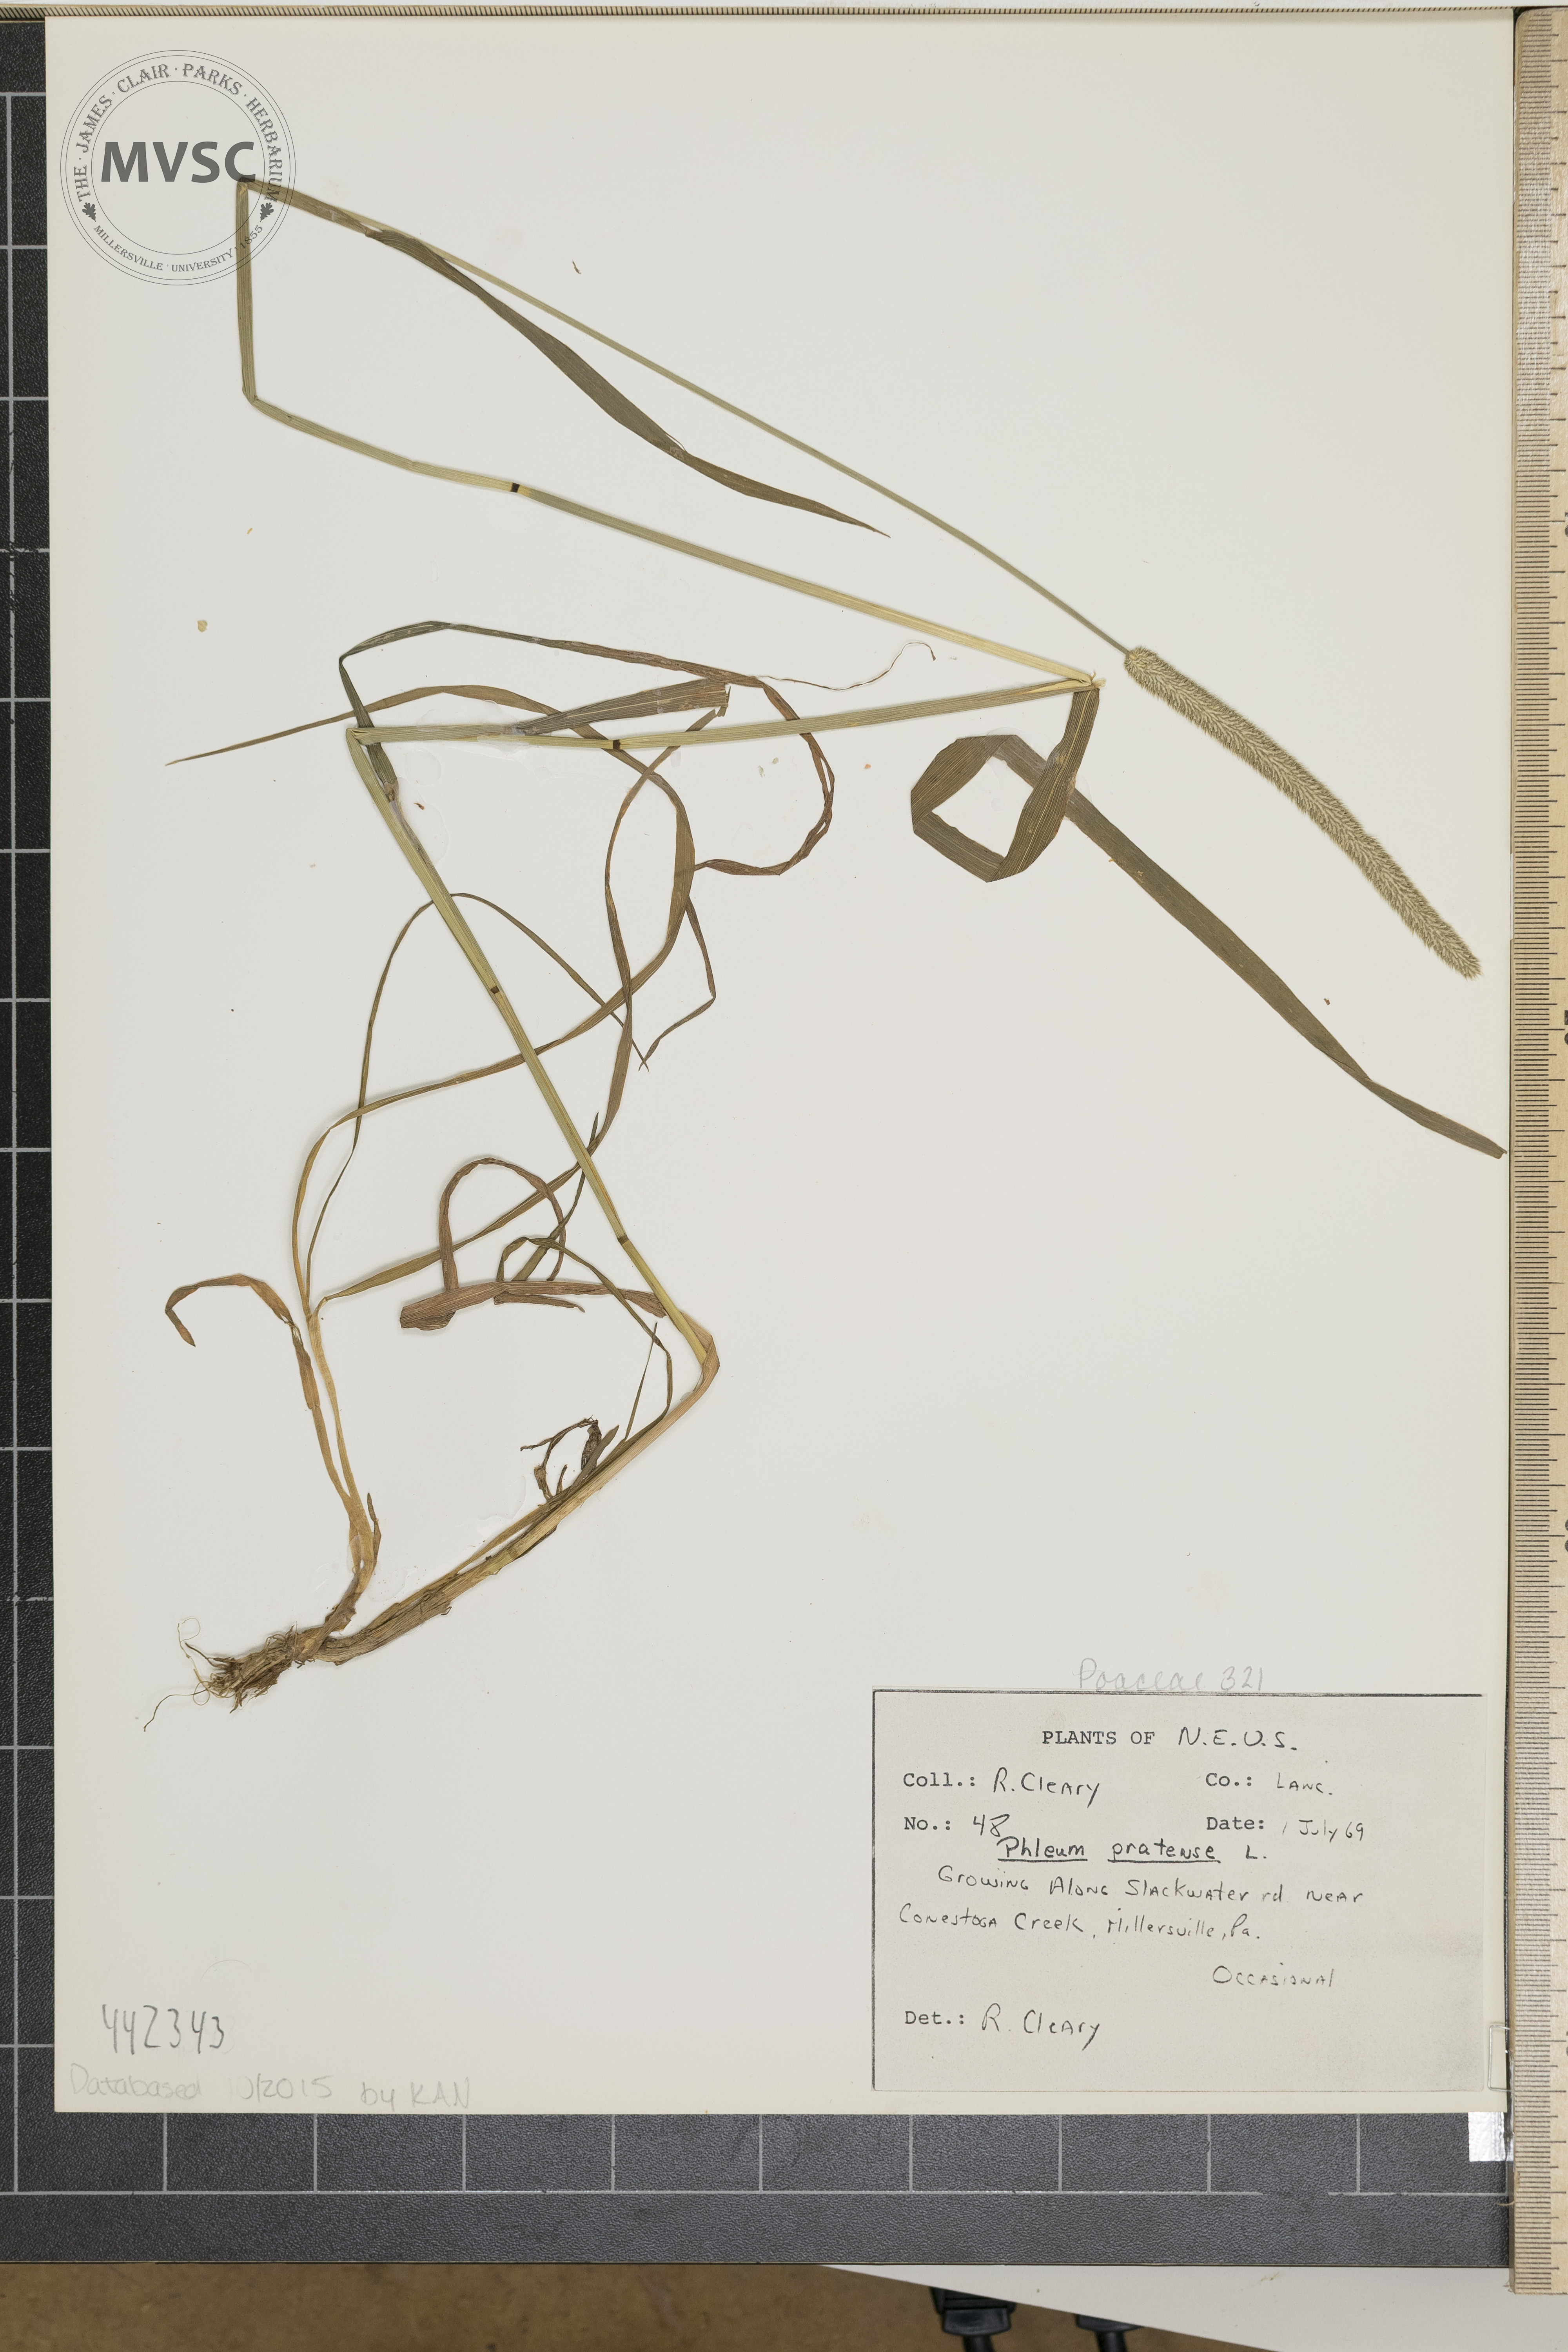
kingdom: Plantae
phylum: Tracheophyta
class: Liliopsida
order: Poales
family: Poaceae
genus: Phleum
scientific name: Phleum pratense
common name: Timothy grass
